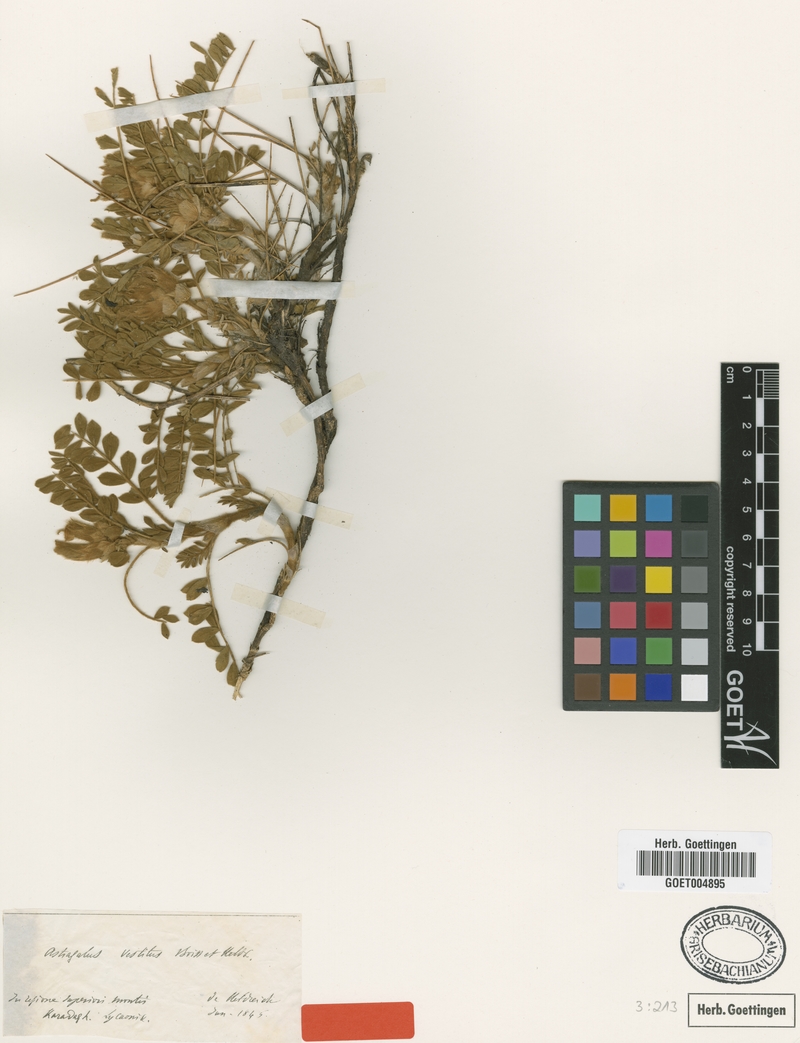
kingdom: Plantae
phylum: Tracheophyta
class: Magnoliopsida
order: Fabales
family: Fabaceae
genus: Astragalus
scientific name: Astragalus vestitus
